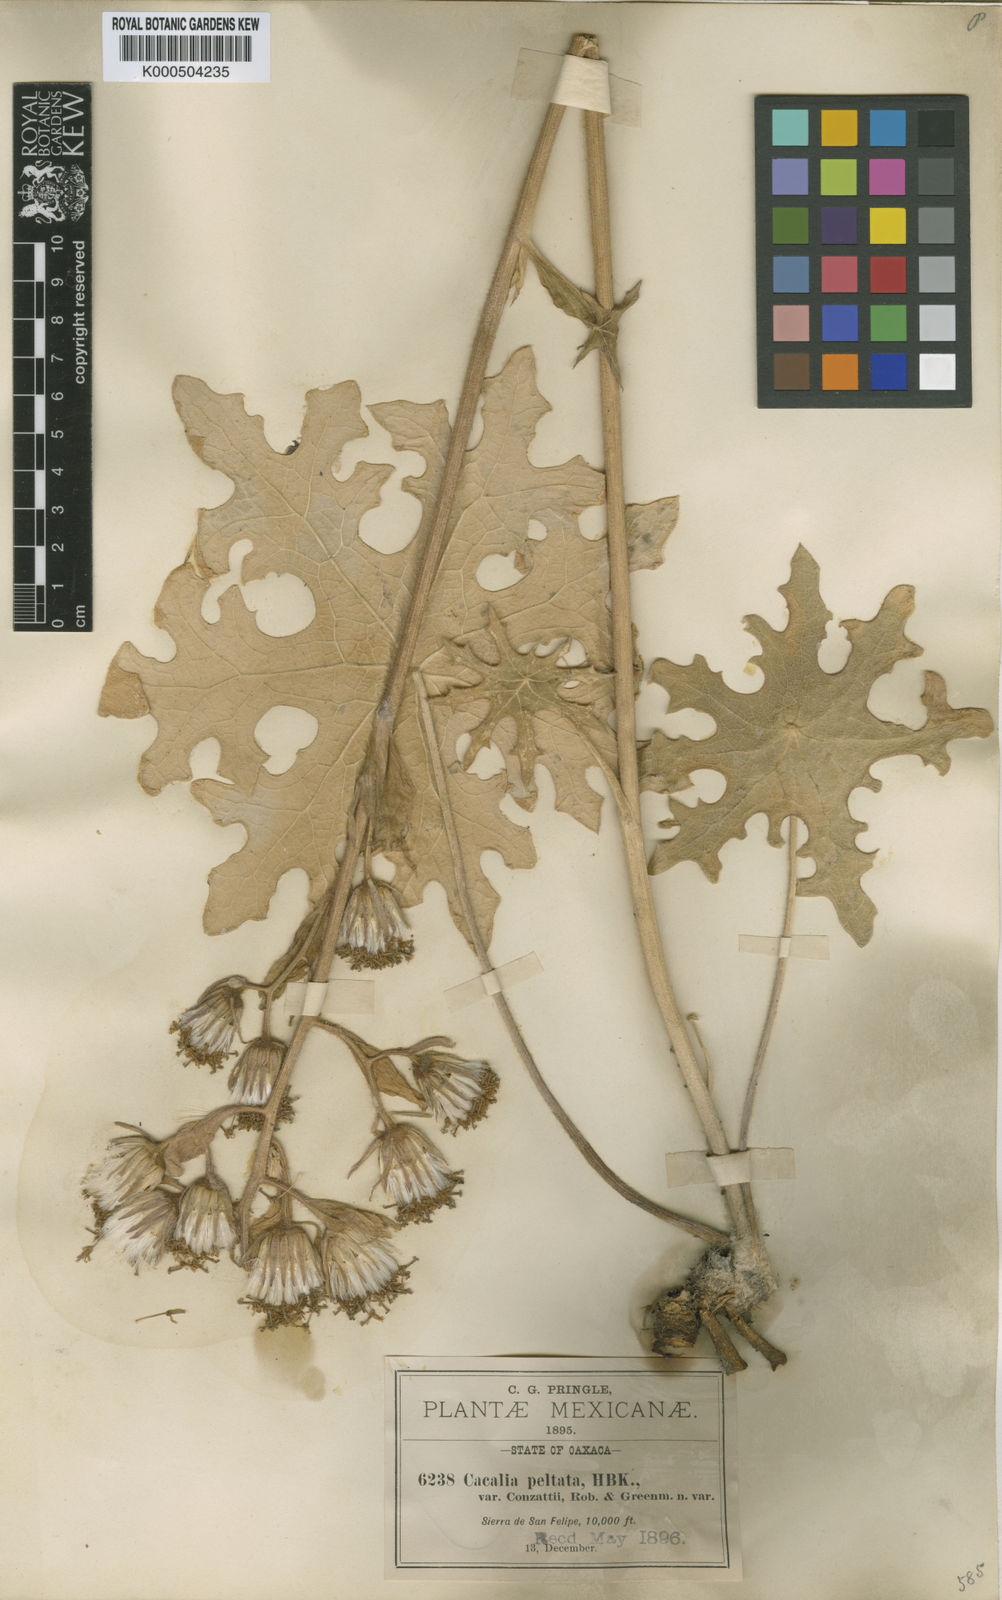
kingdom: Plantae
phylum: Tracheophyta
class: Magnoliopsida
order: Asterales
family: Asteraceae
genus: Psacalium
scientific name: Psacalium peltatum
